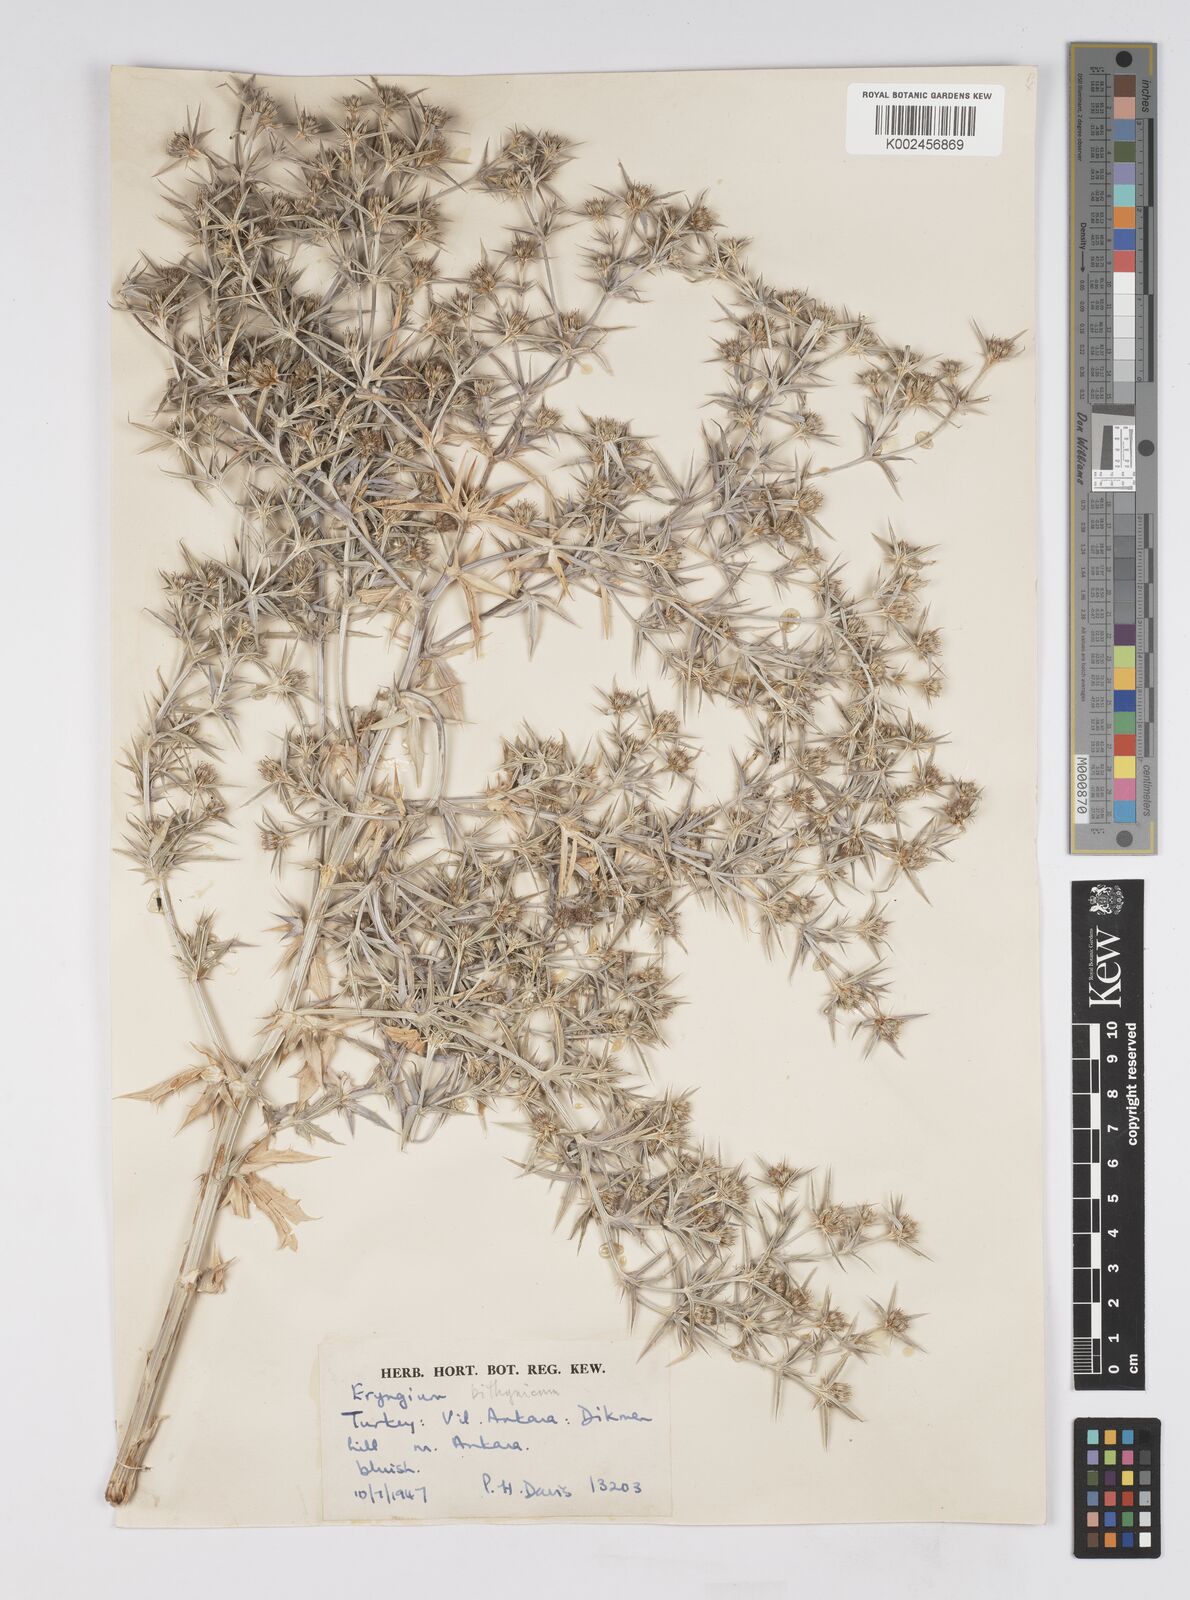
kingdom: Plantae
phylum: Tracheophyta
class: Magnoliopsida
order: Apiales
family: Apiaceae
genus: Eryngium
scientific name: Eryngium bithynicum
